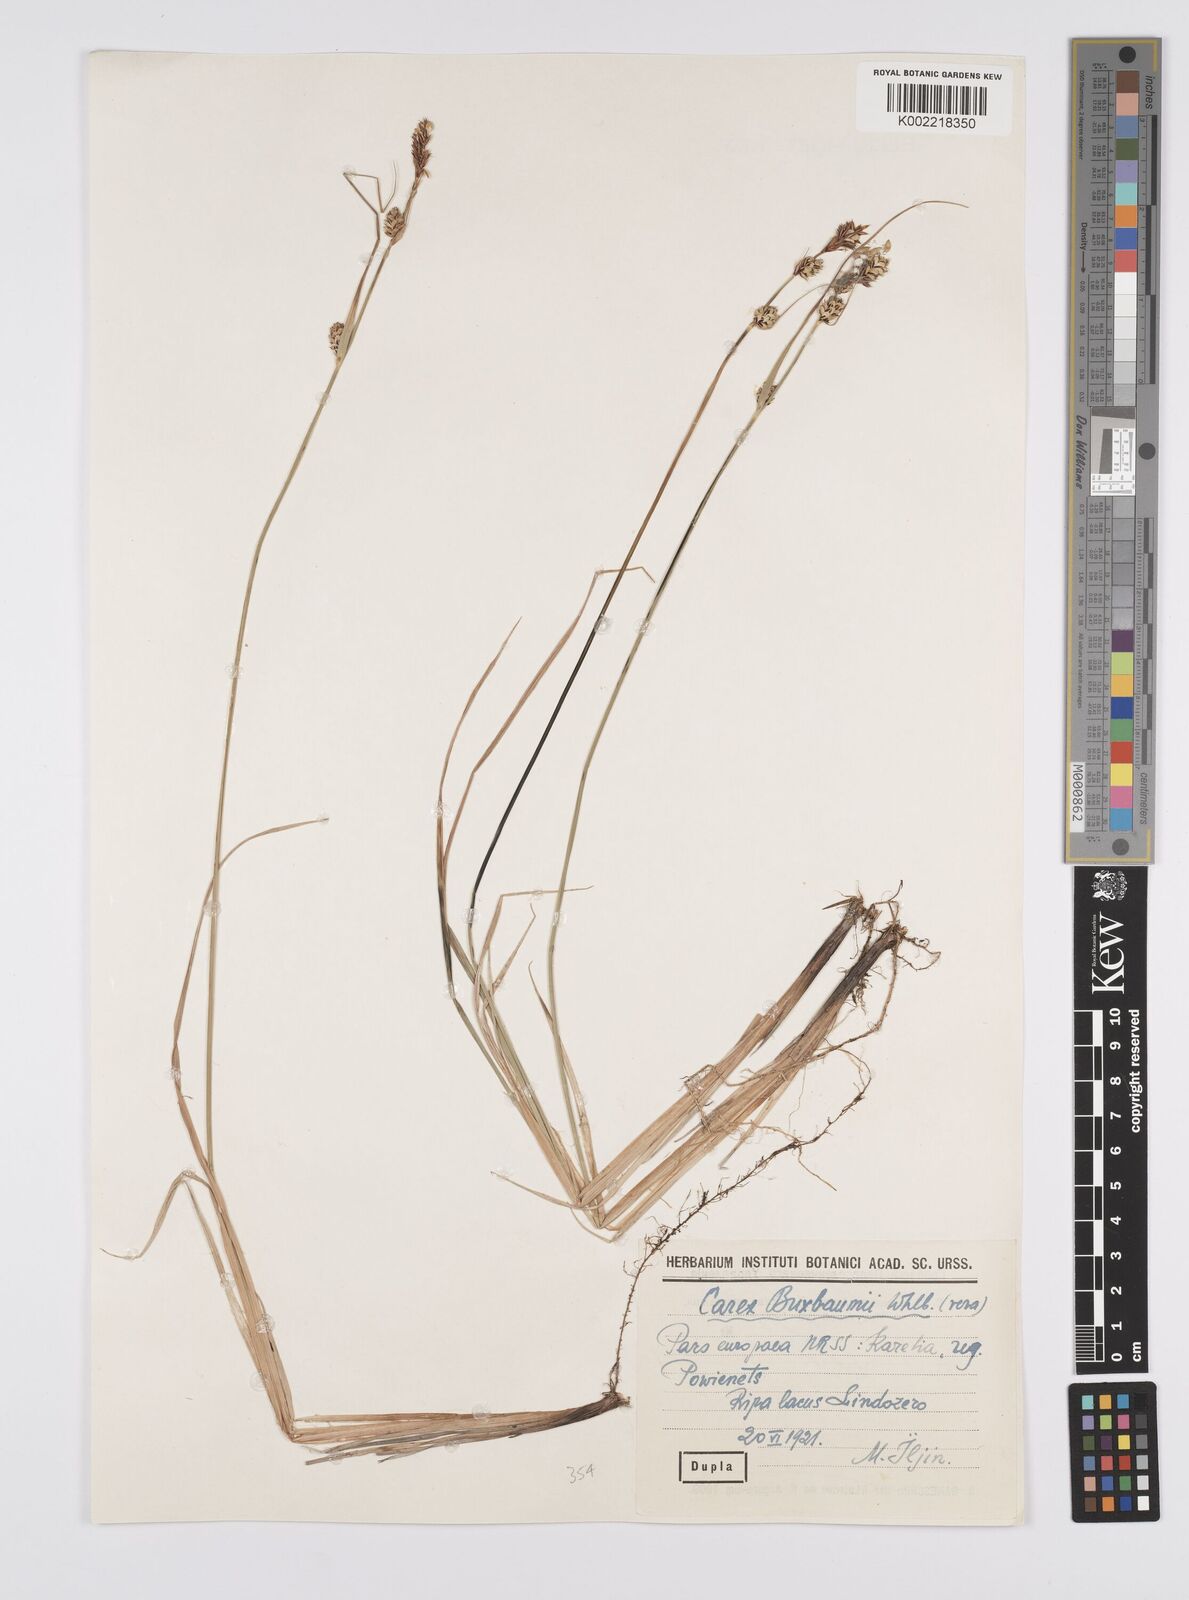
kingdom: Plantae
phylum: Tracheophyta
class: Liliopsida
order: Poales
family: Cyperaceae
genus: Carex
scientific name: Carex buxbaumii
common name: Club sedge
